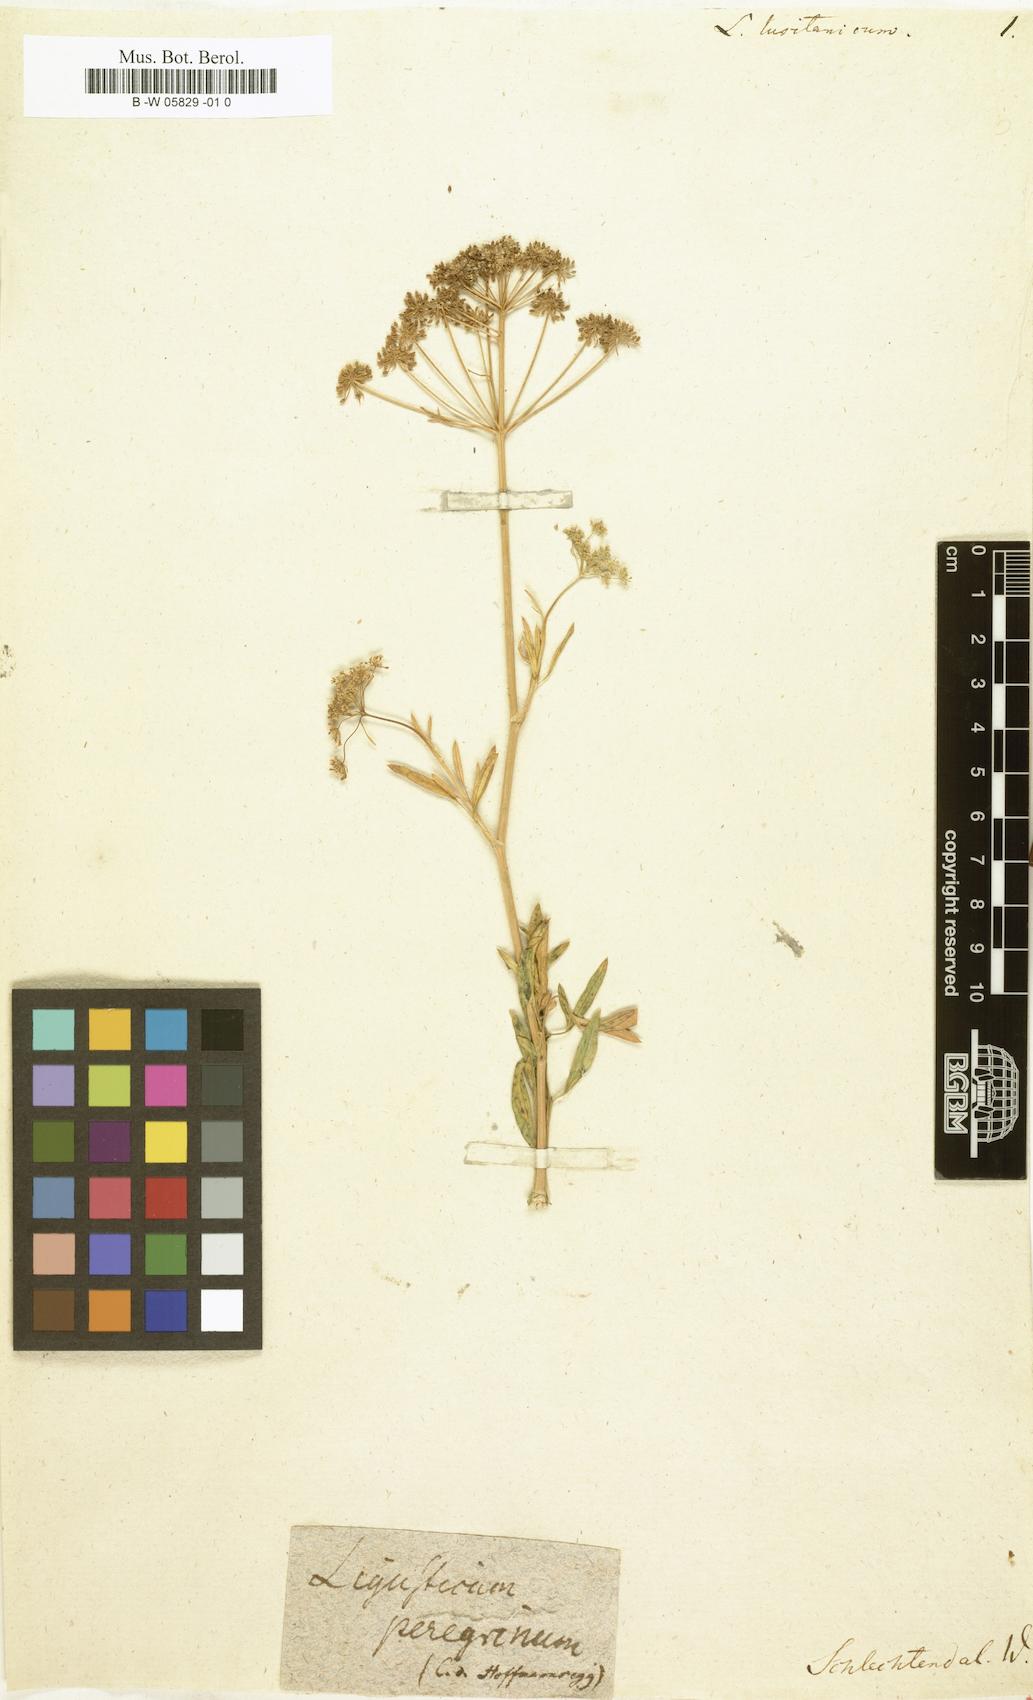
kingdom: Plantae
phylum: Tracheophyta
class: Magnoliopsida
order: Apiales
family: Apiaceae
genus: Ligusticum
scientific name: Ligusticum
